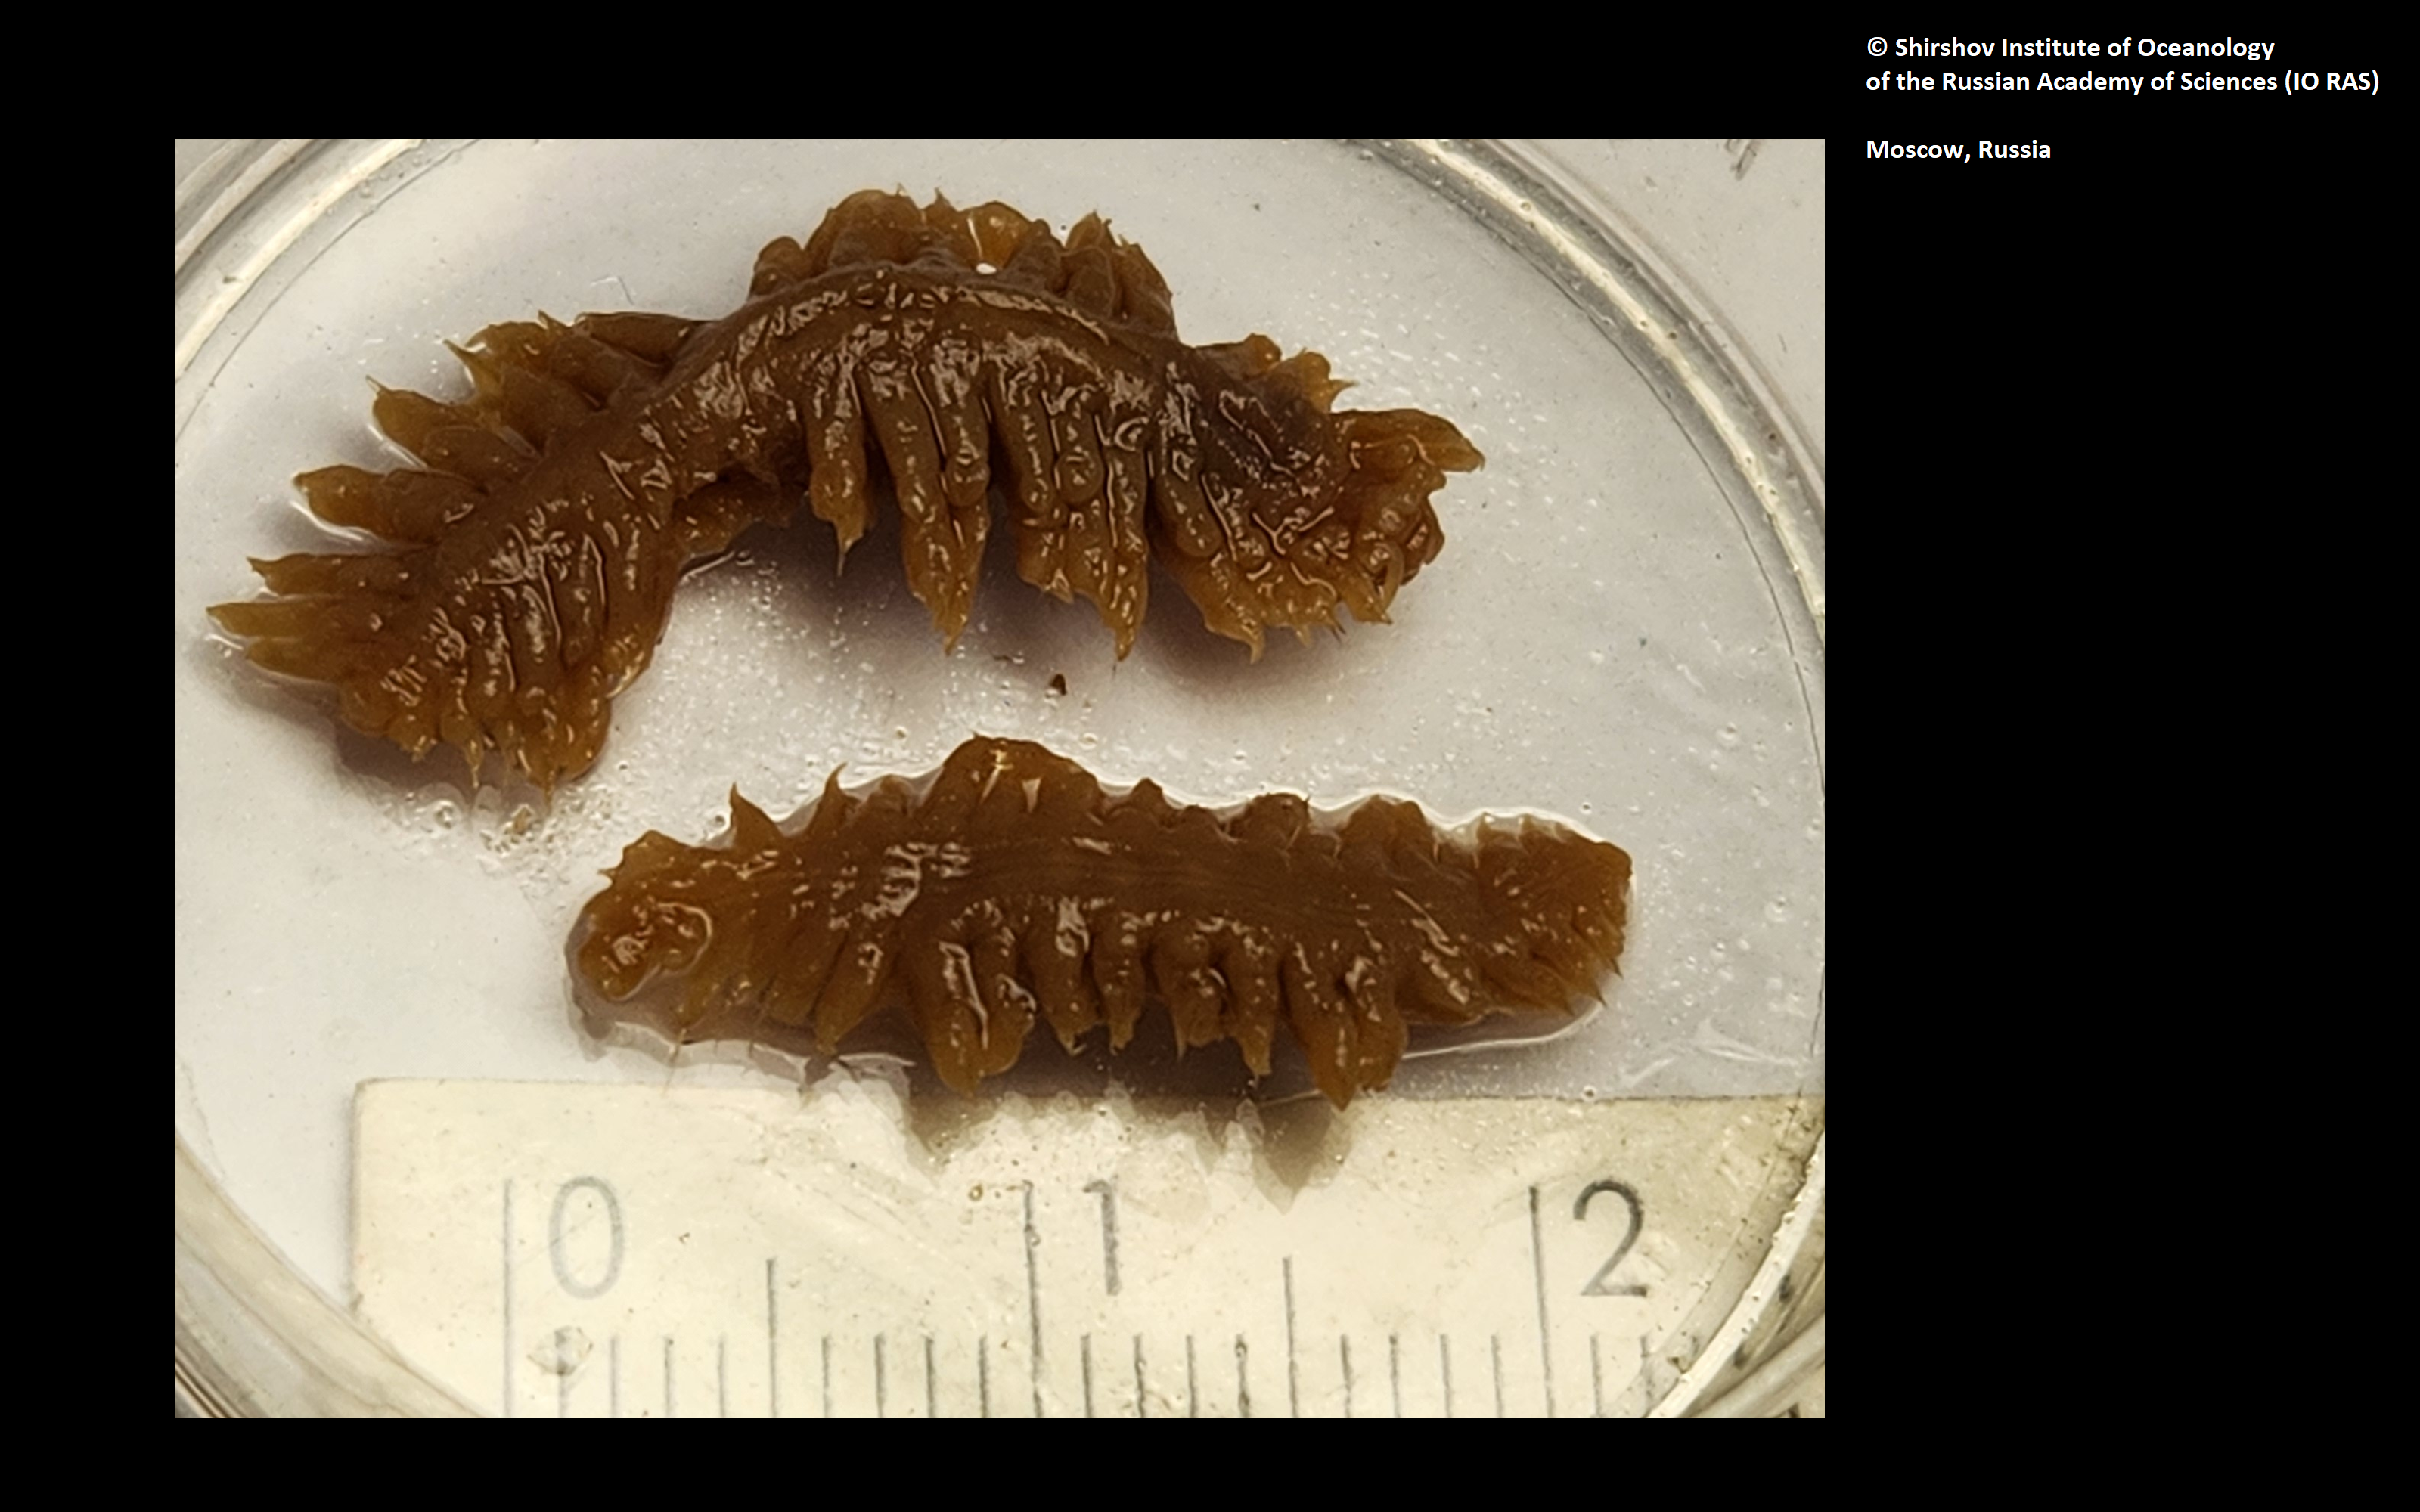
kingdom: Animalia
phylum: Annelida
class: Polychaeta
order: Phyllodocida
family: Polynoidae
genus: Bathytasmania
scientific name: Bathytasmania insolita
